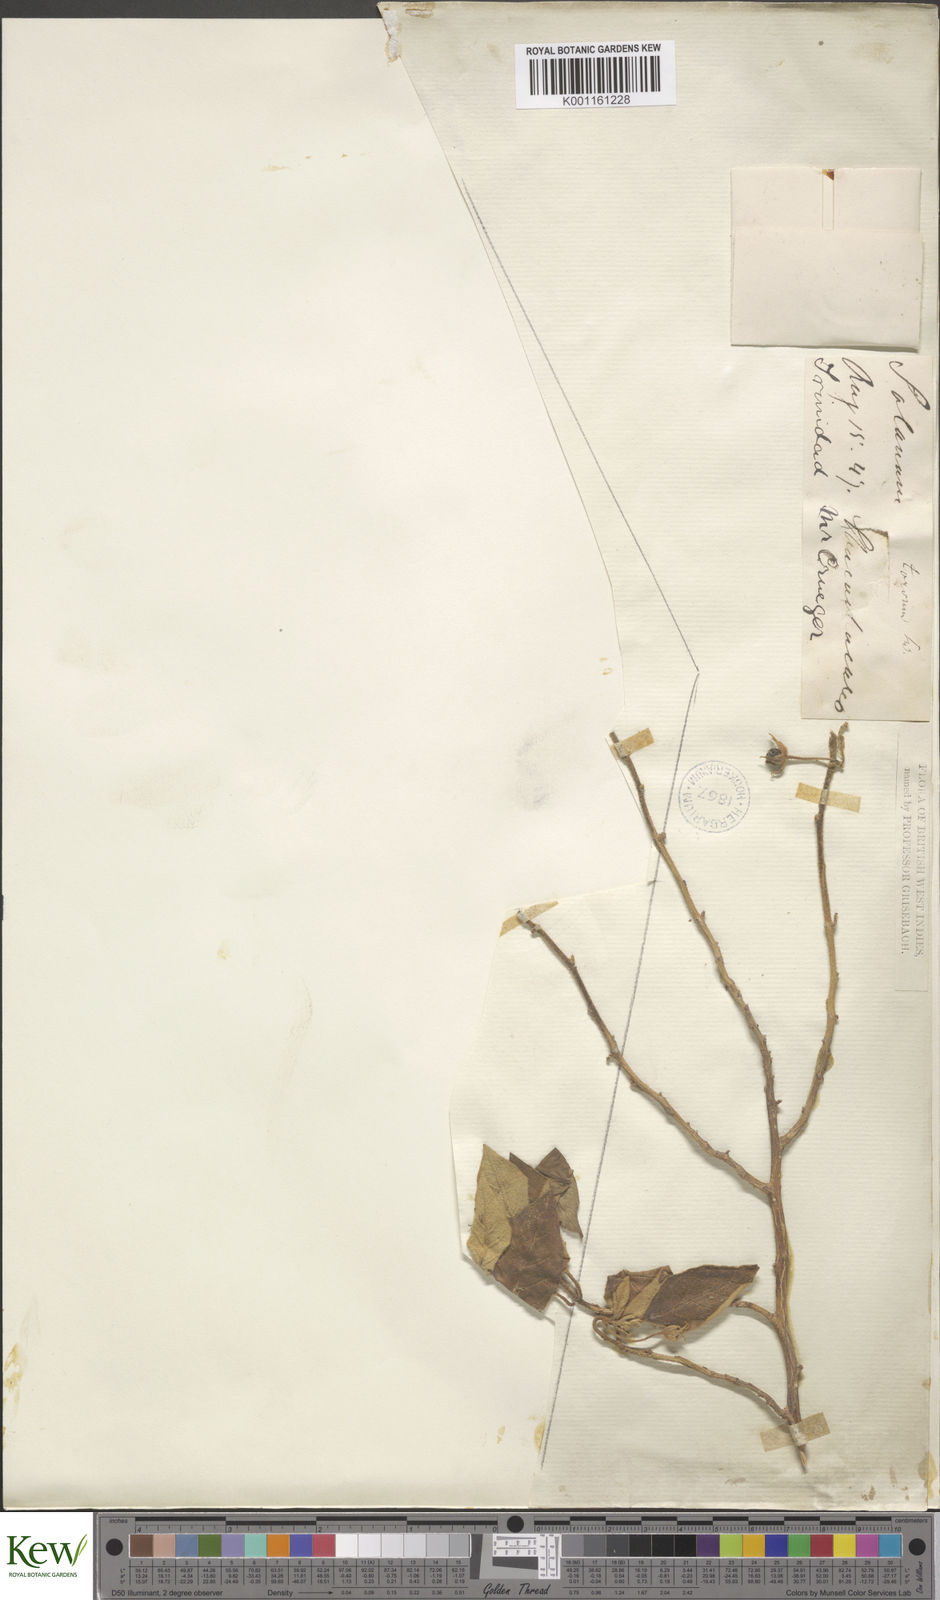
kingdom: Plantae
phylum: Tracheophyta
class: Magnoliopsida
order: Solanales
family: Solanaceae
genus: Solanum
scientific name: Solanum gardneri
